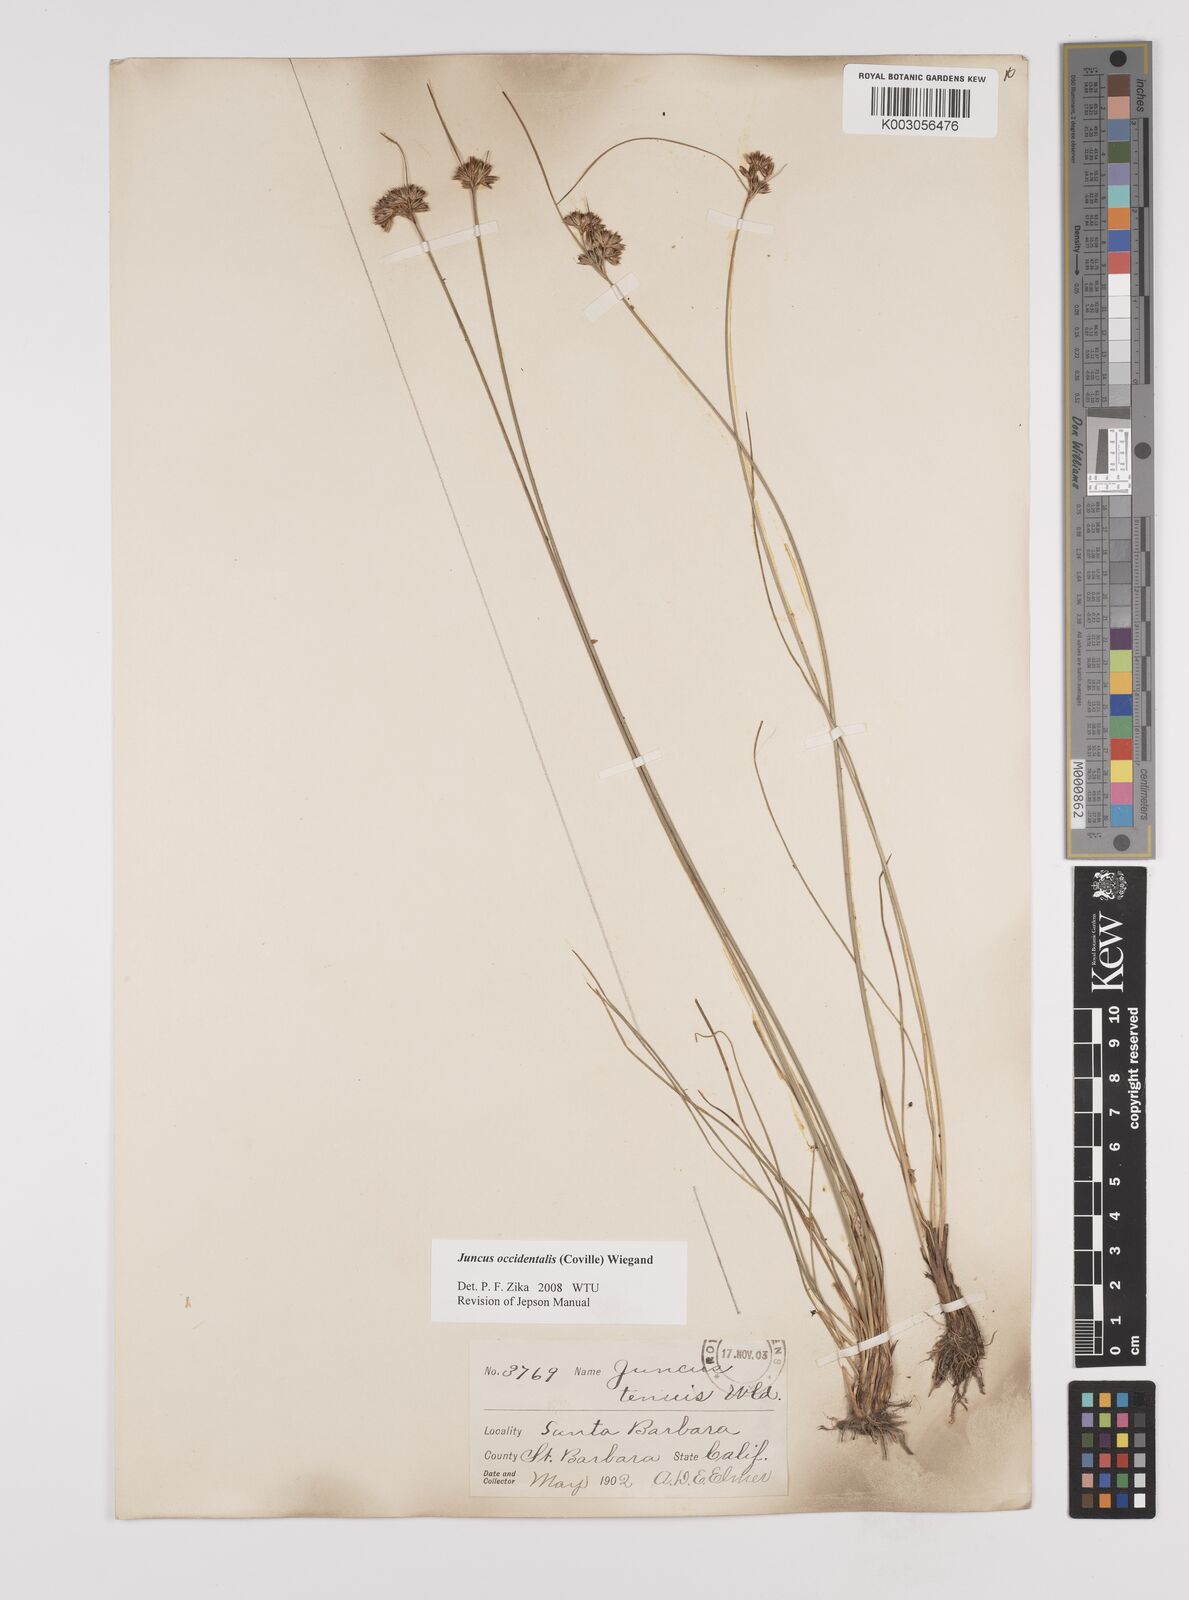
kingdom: Plantae
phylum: Tracheophyta
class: Liliopsida
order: Poales
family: Juncaceae
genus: Juncus
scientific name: Juncus occidentalis
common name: Western rush
